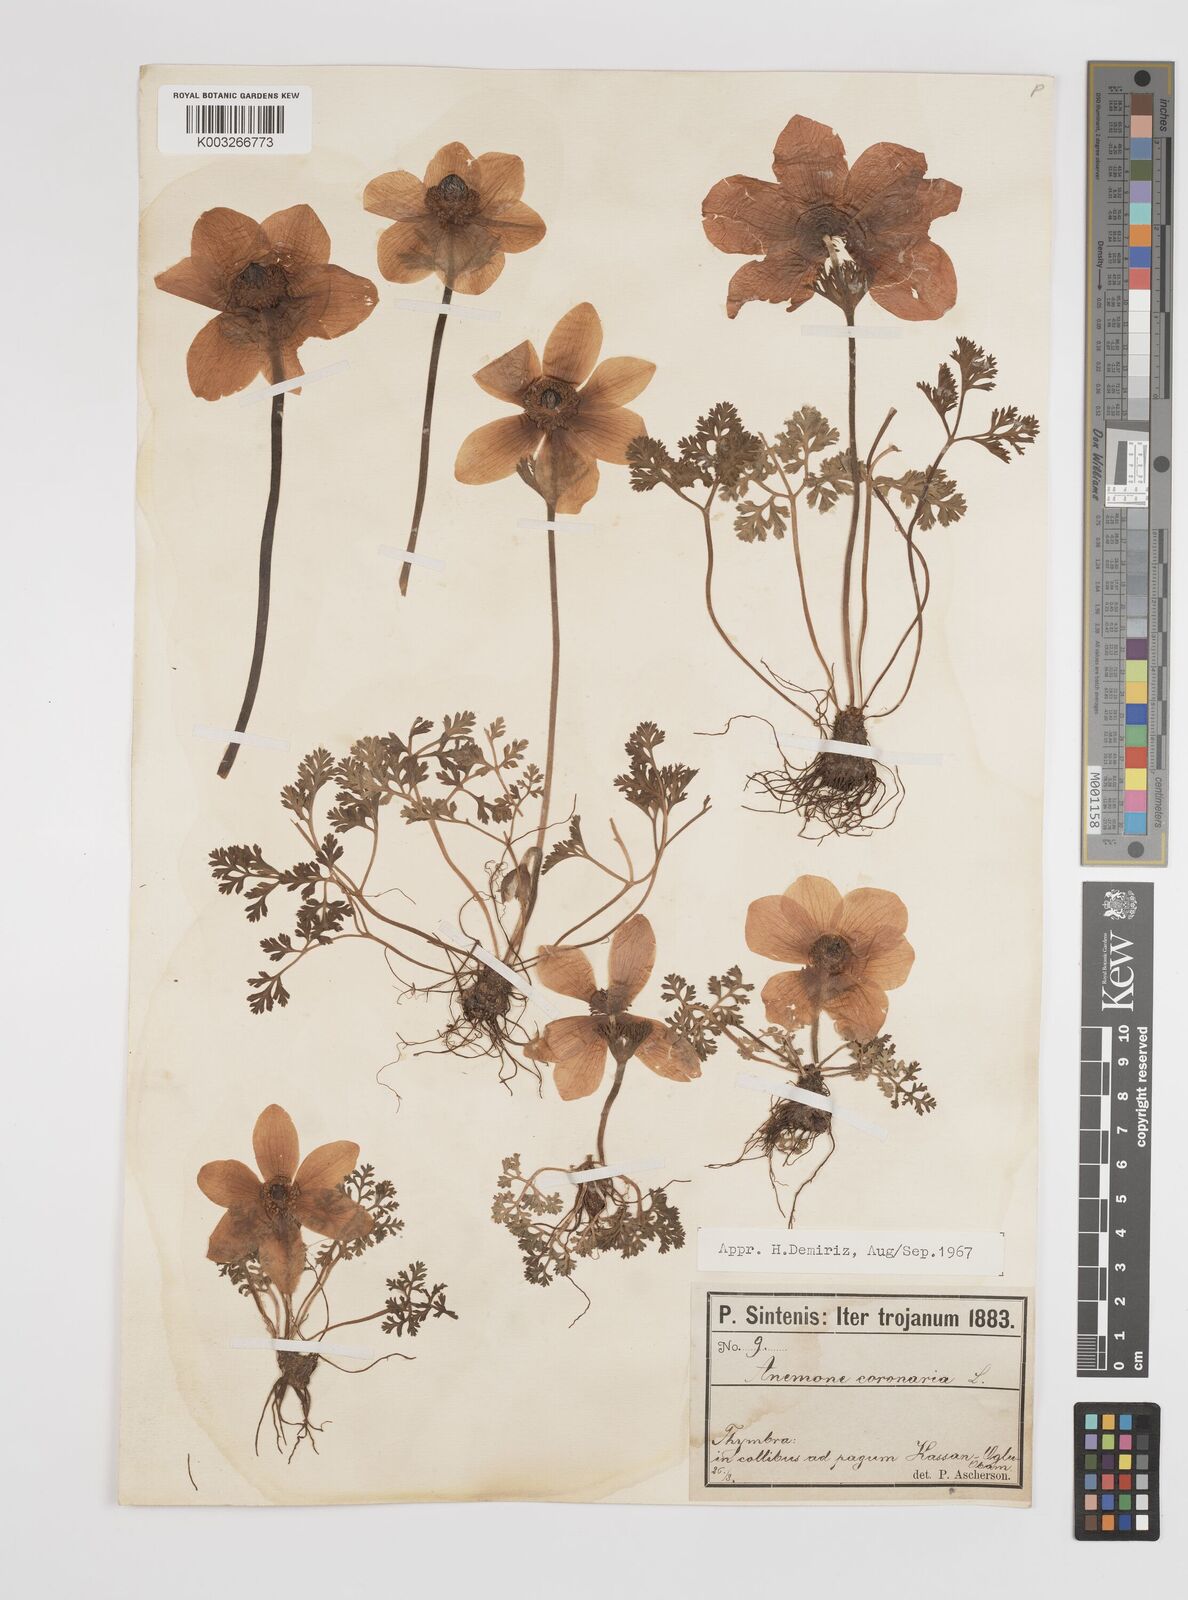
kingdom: Plantae
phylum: Tracheophyta
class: Magnoliopsida
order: Ranunculales
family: Ranunculaceae
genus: Anemone
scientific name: Anemone coronaria
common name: Poppy anemone
